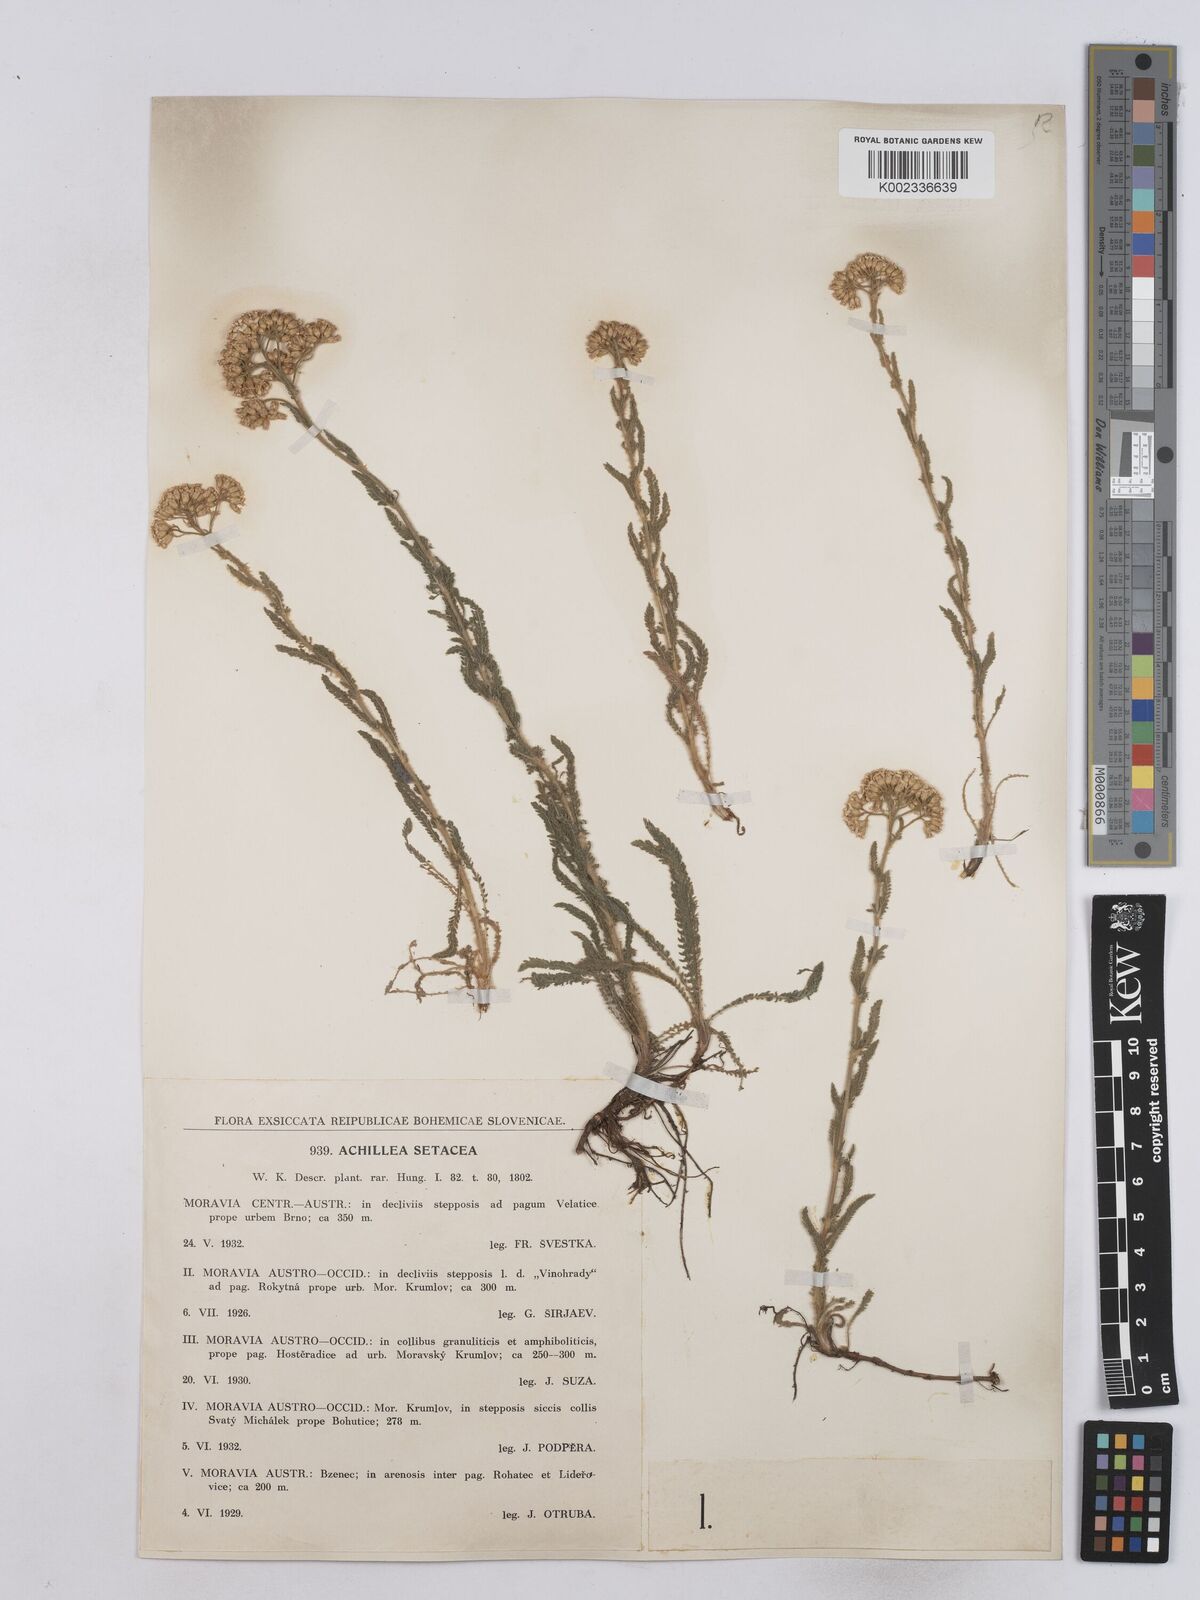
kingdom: Plantae
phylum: Tracheophyta
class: Magnoliopsida
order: Asterales
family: Asteraceae
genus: Achillea
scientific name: Achillea setacea
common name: Bristly yarrow
